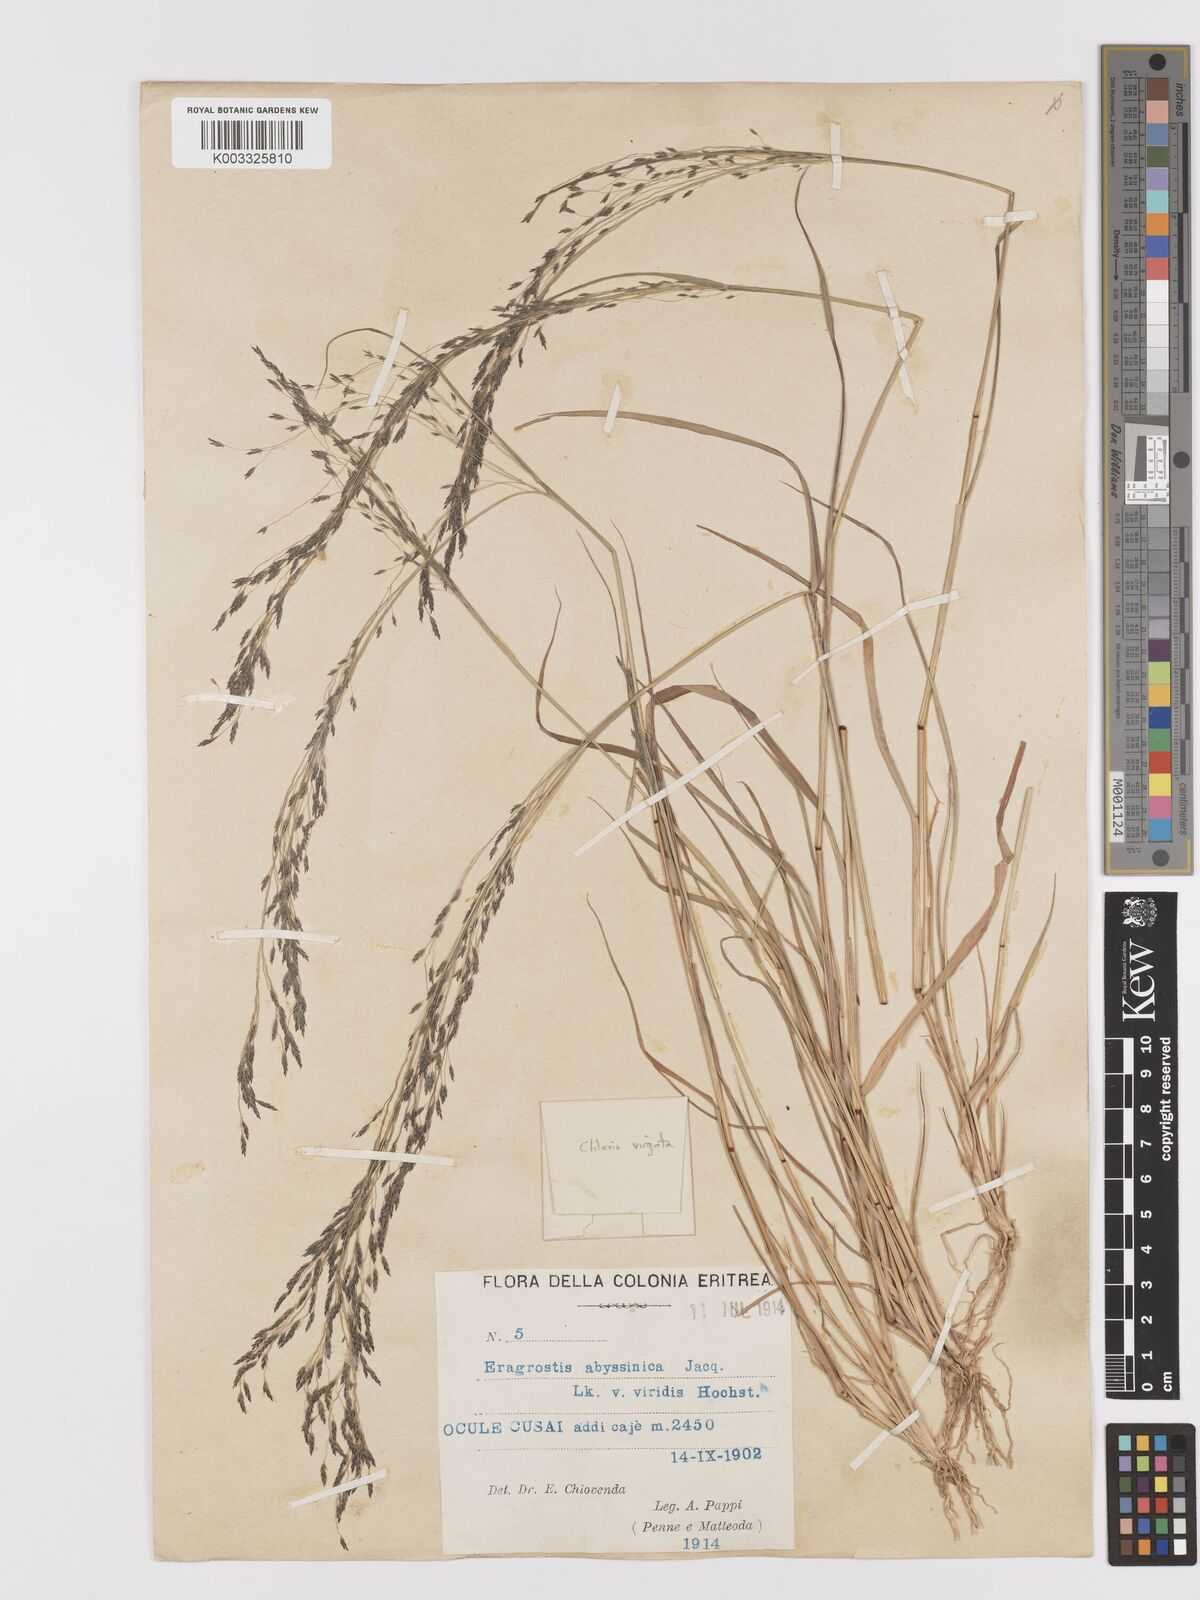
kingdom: Plantae
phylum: Tracheophyta
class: Liliopsida
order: Poales
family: Poaceae
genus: Eragrostis
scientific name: Eragrostis tef
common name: Teff
